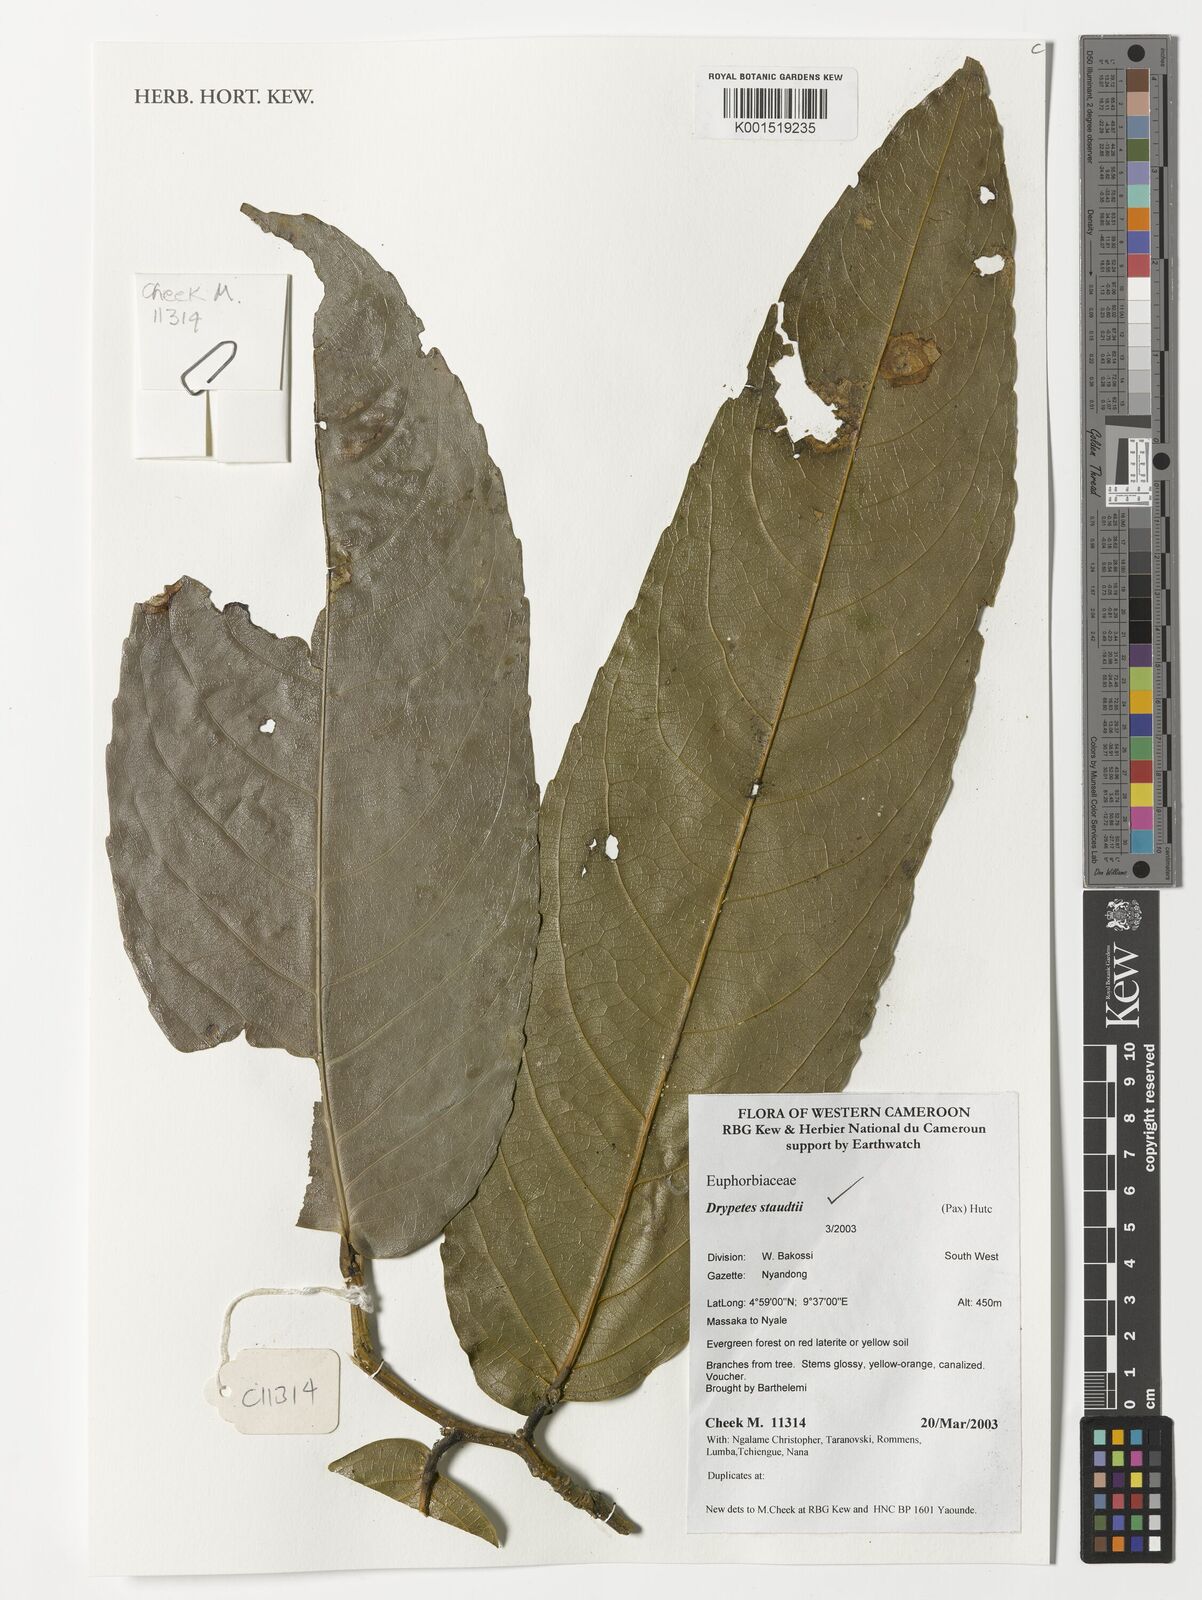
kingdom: Plantae
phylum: Tracheophyta
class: Magnoliopsida
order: Malpighiales
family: Putranjivaceae
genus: Drypetes
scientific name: Drypetes staudtii
